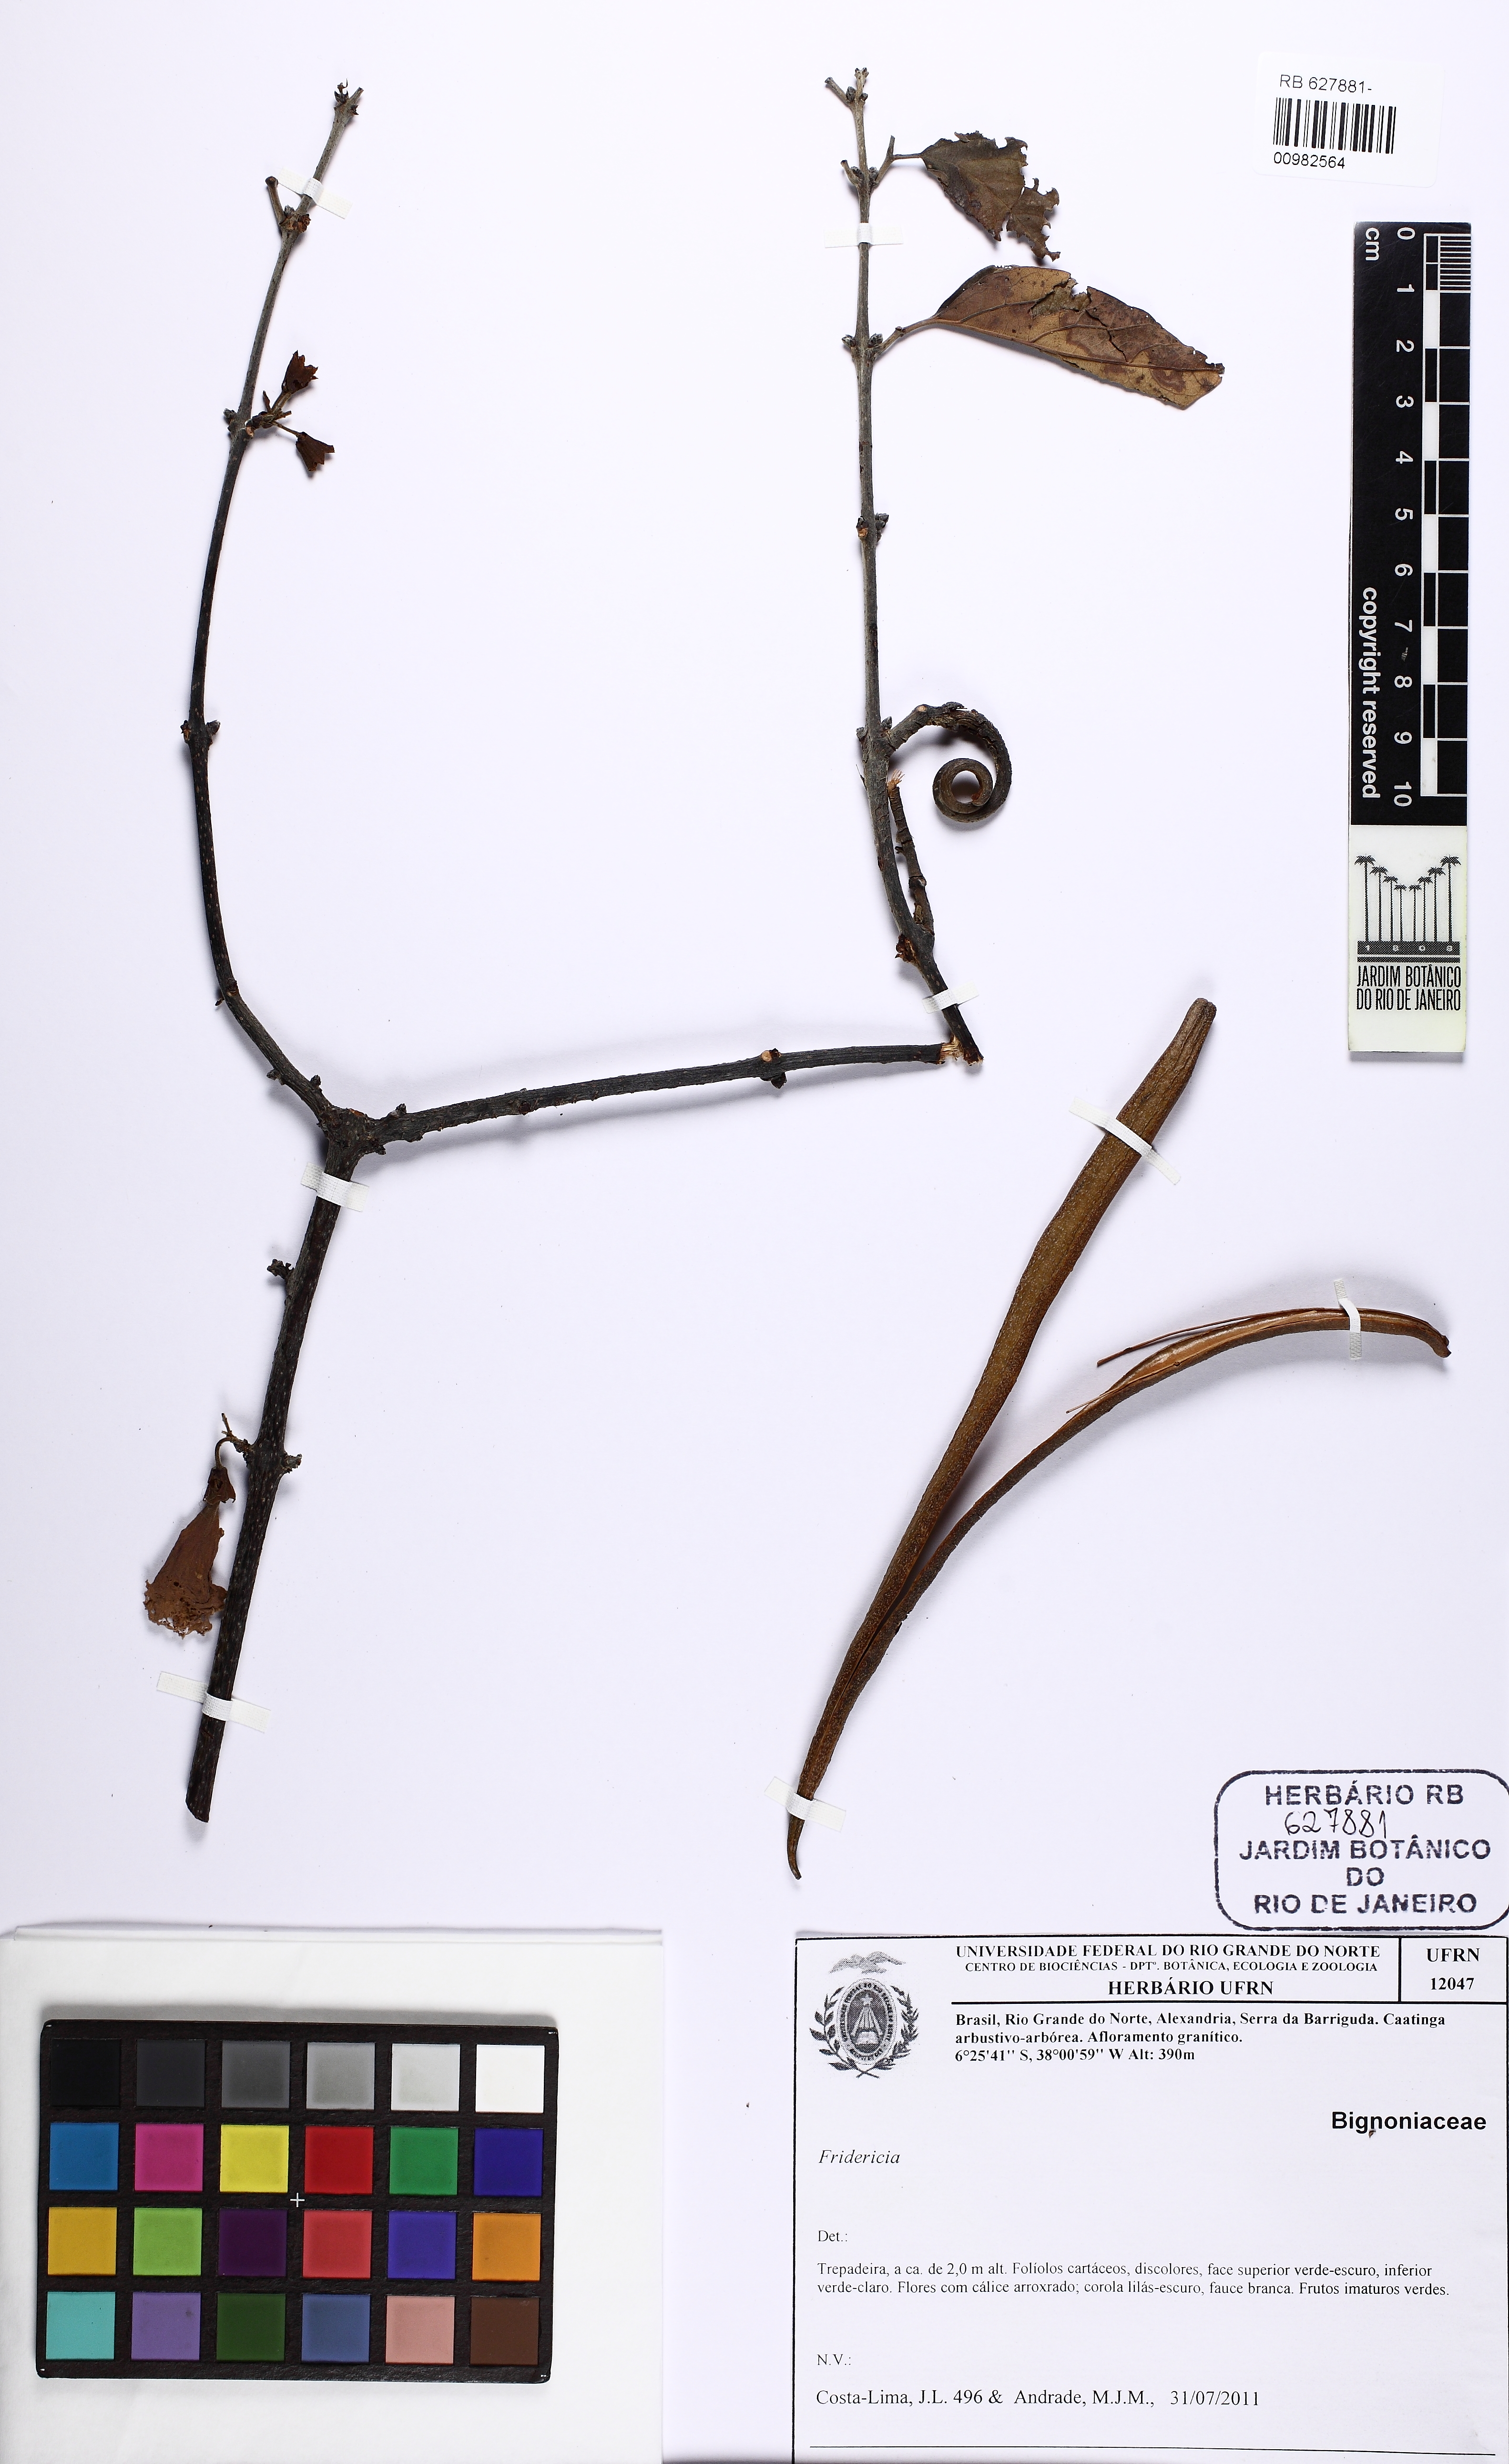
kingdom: Plantae
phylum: Tracheophyta
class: Magnoliopsida
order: Lamiales
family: Bignoniaceae
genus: Cuspidaria
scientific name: Cuspidaria cratensis
